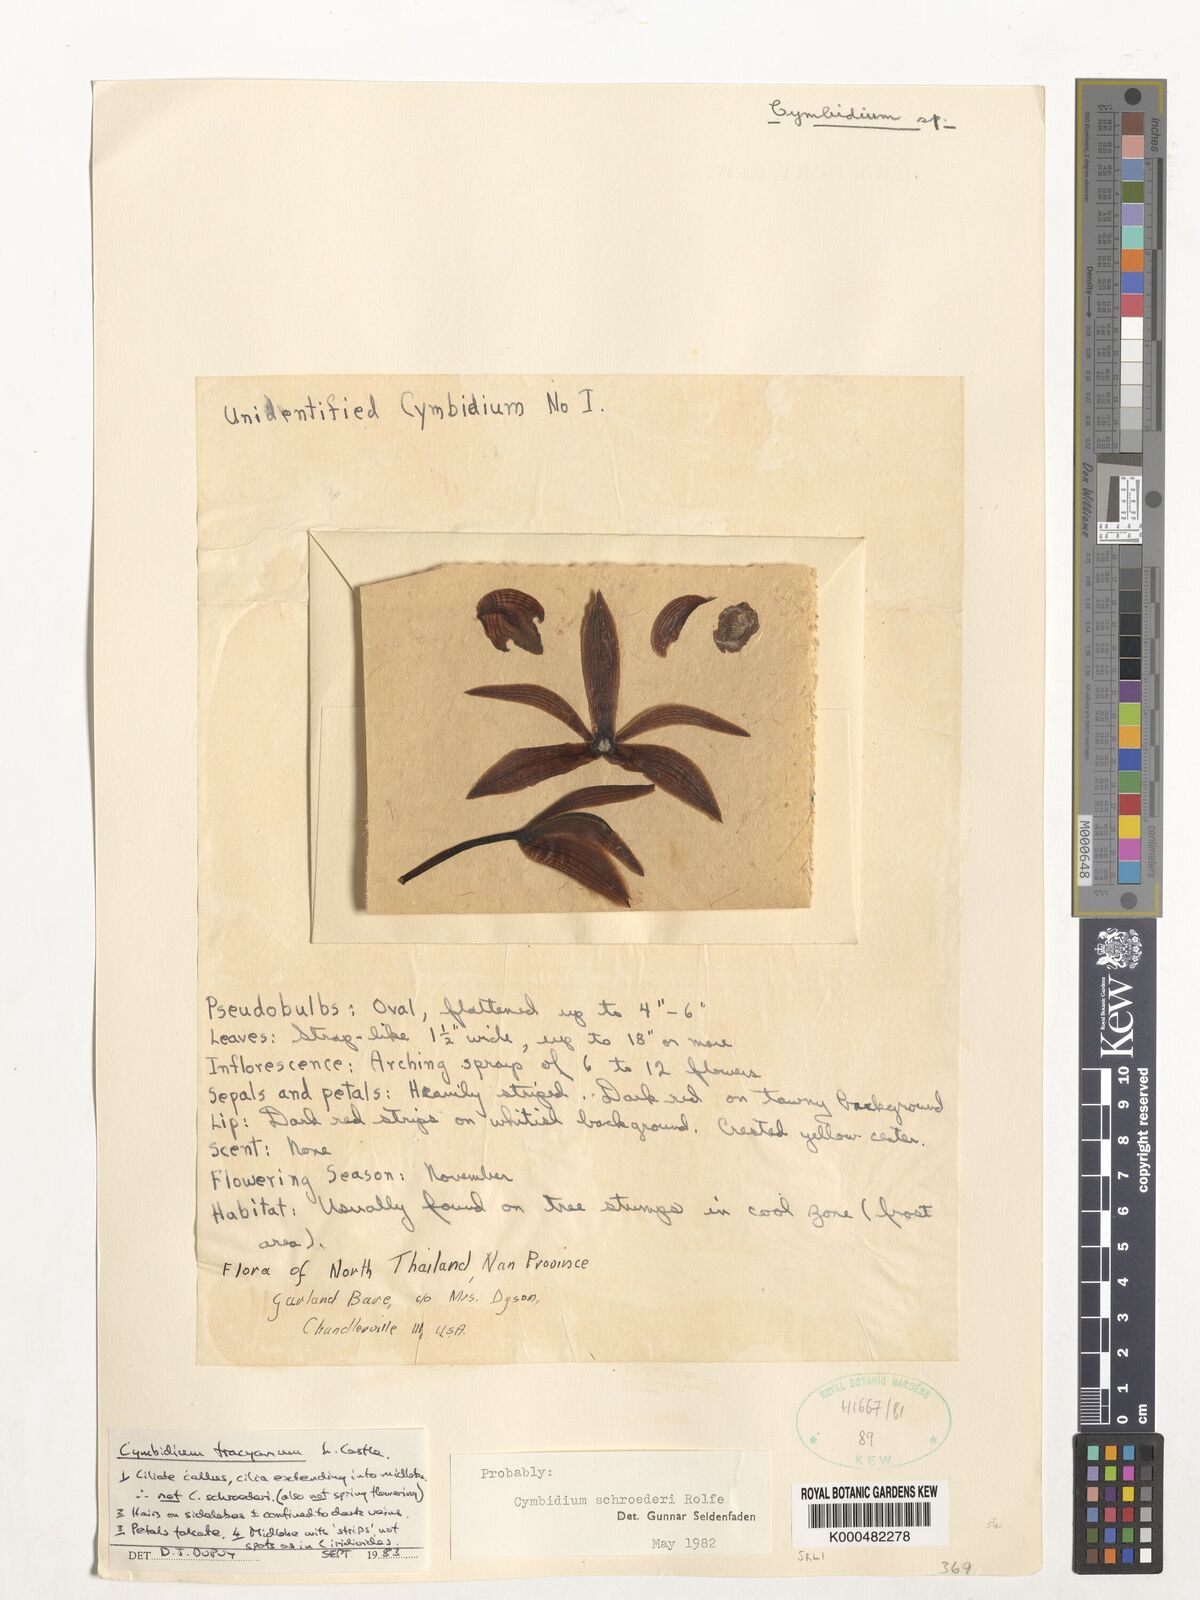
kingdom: Plantae
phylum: Tracheophyta
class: Liliopsida
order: Asparagales
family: Orchidaceae
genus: Cymbidium
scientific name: Cymbidium
